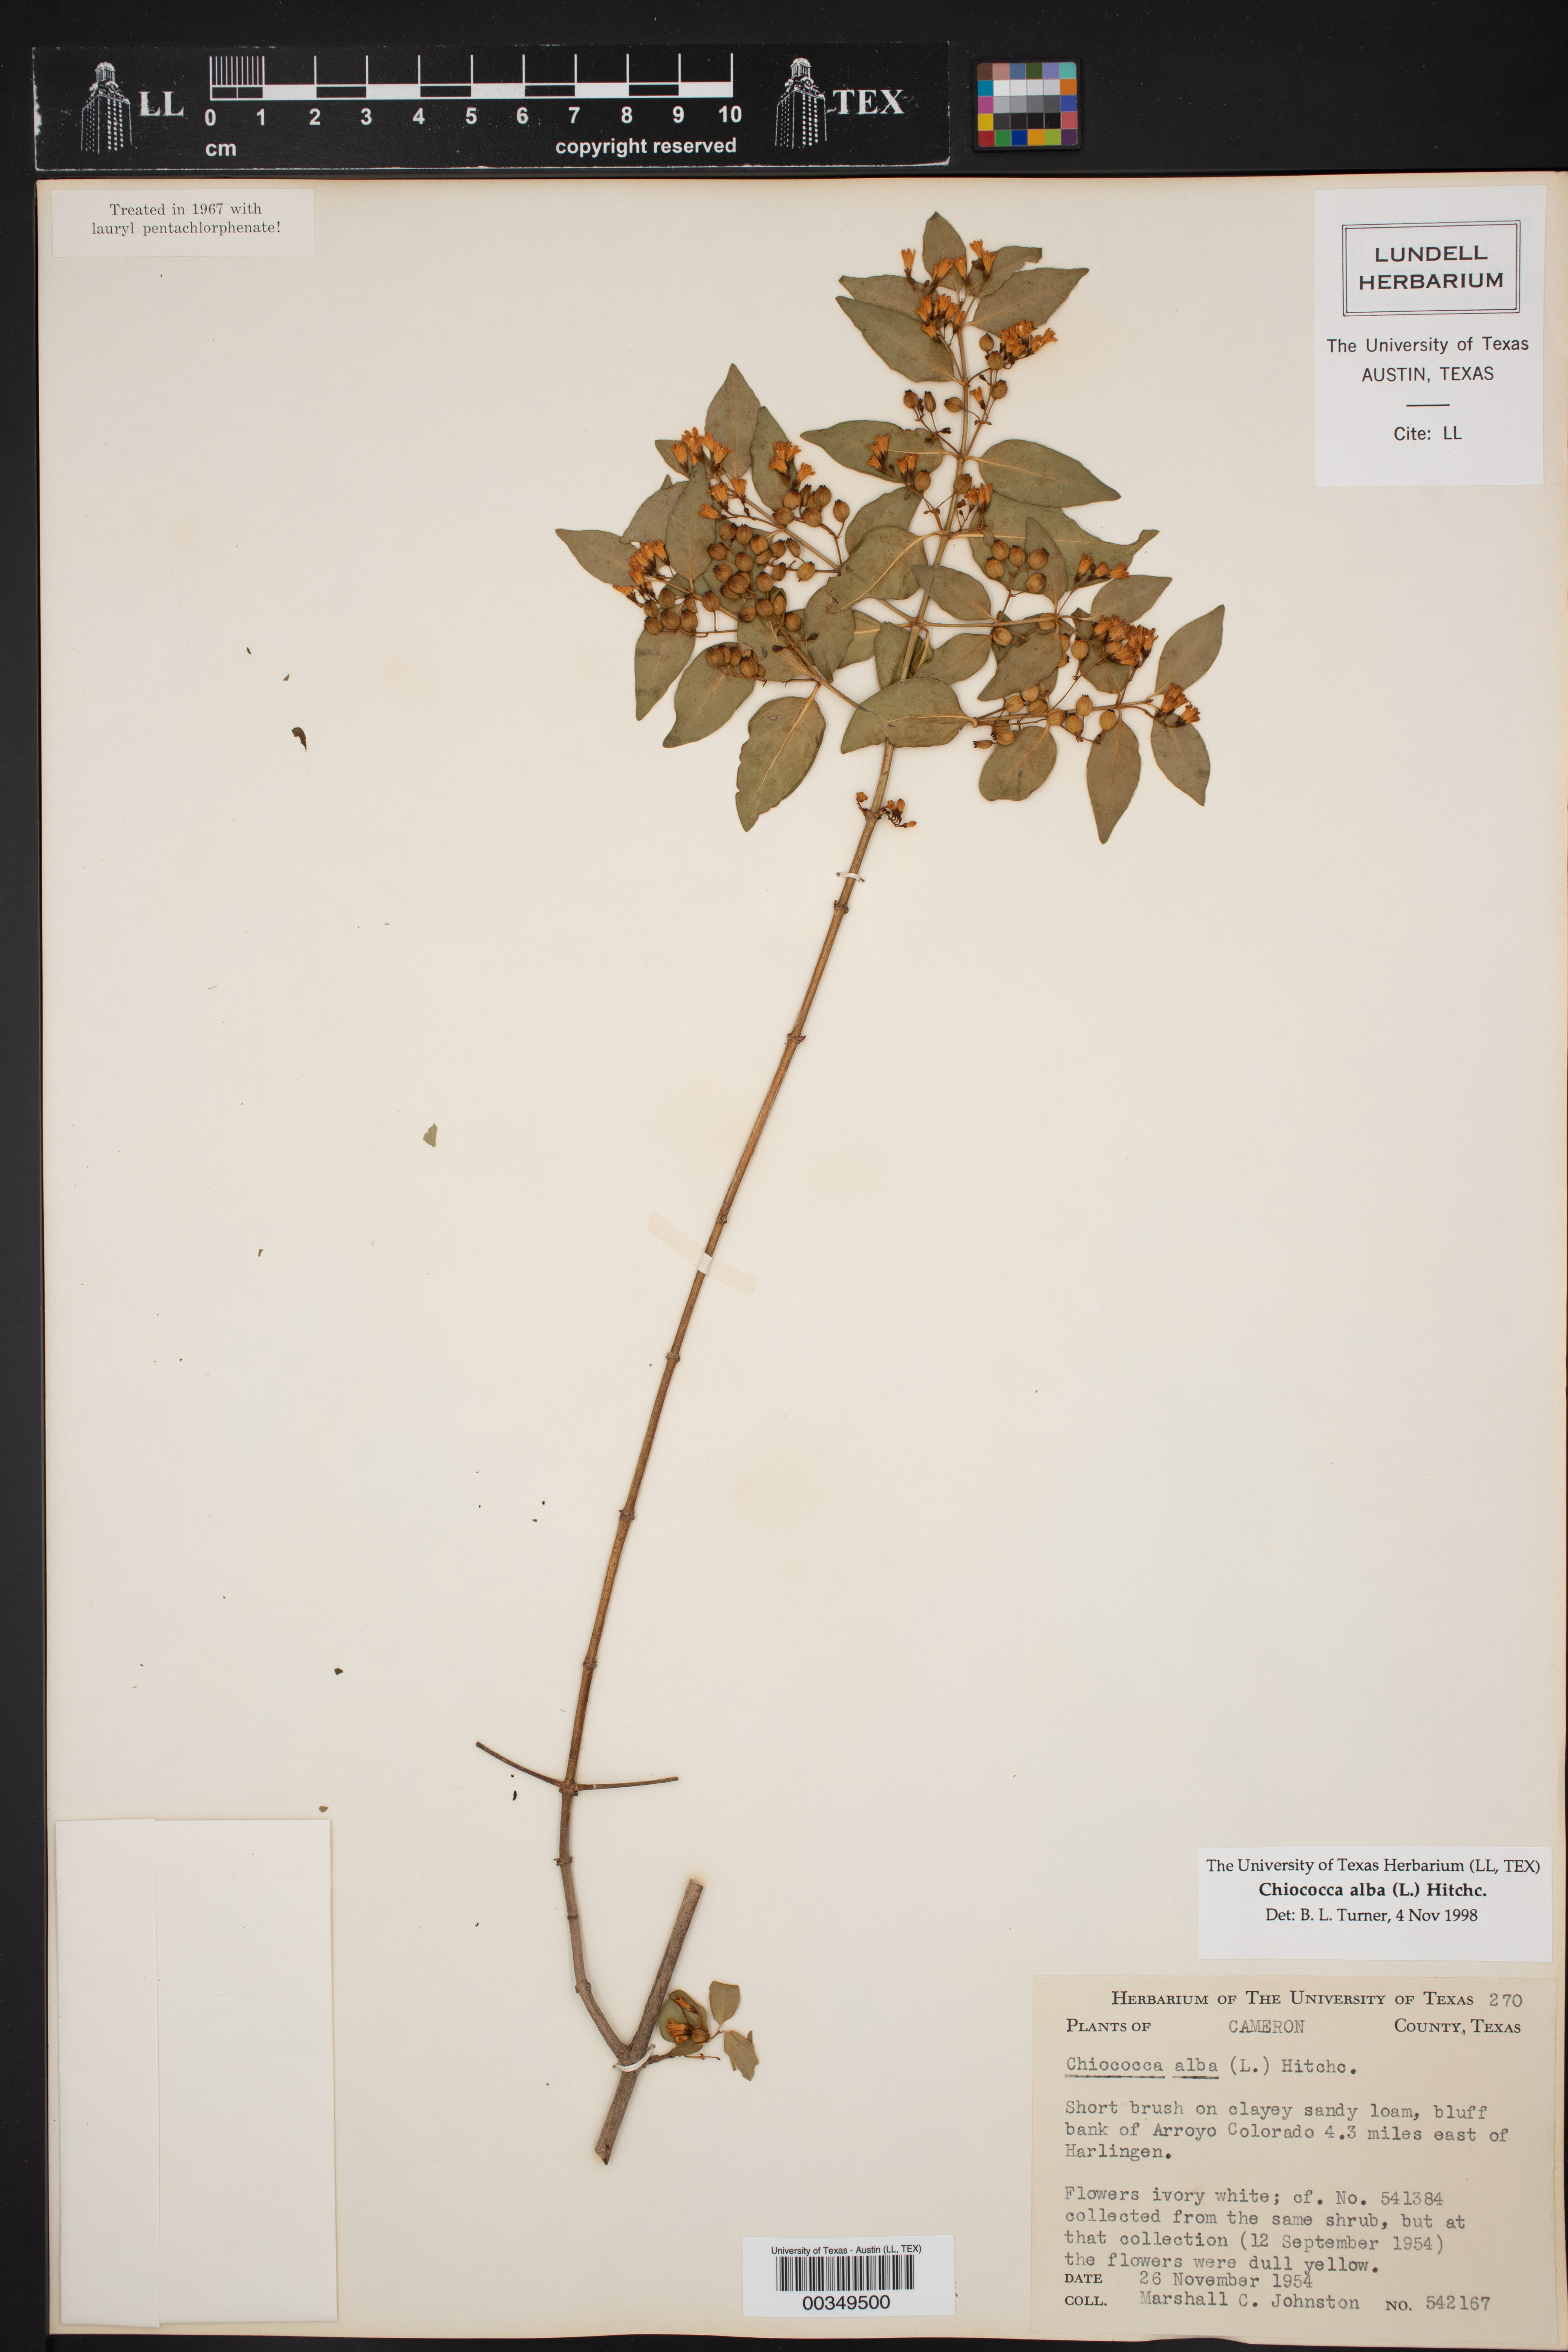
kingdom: Plantae
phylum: Tracheophyta
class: Magnoliopsida
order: Gentianales
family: Rubiaceae
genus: Chiococca
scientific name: Chiococca alba
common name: Snowberry
